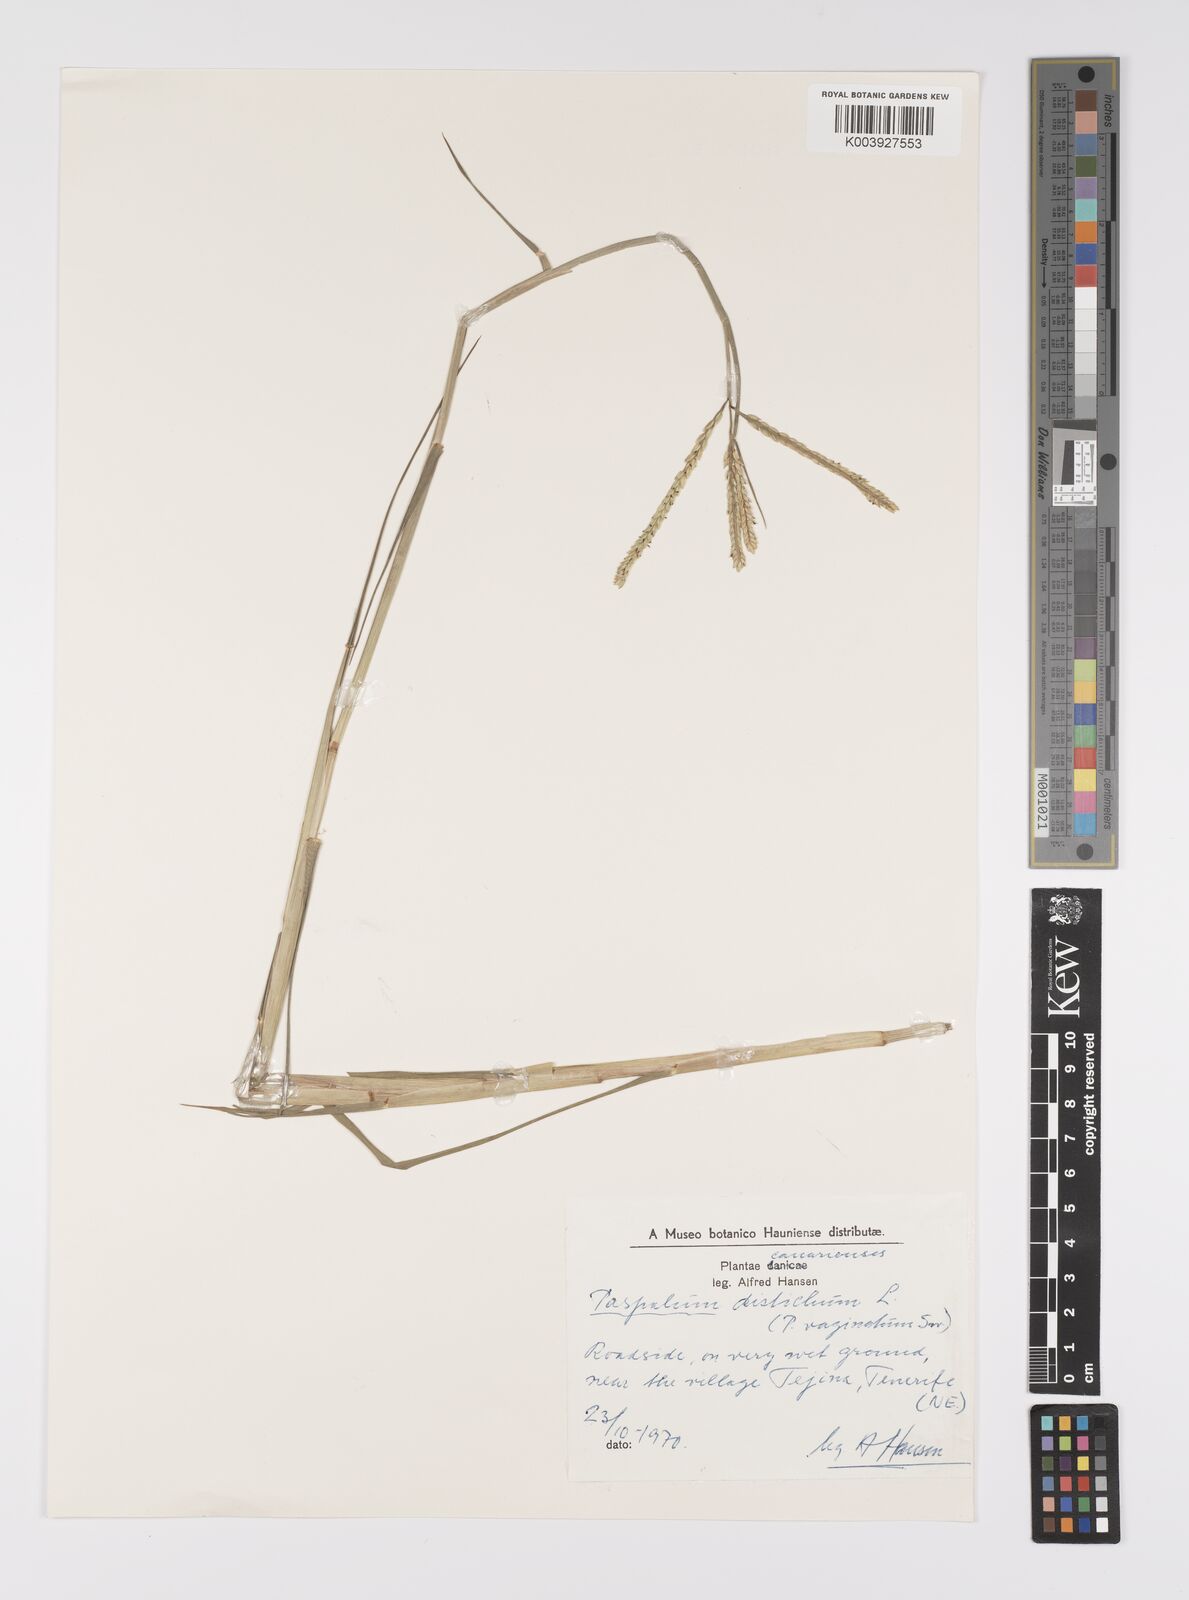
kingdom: Plantae
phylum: Tracheophyta
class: Liliopsida
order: Poales
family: Poaceae
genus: Paspalum
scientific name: Paspalum vaginatum
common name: Seashore paspalum
